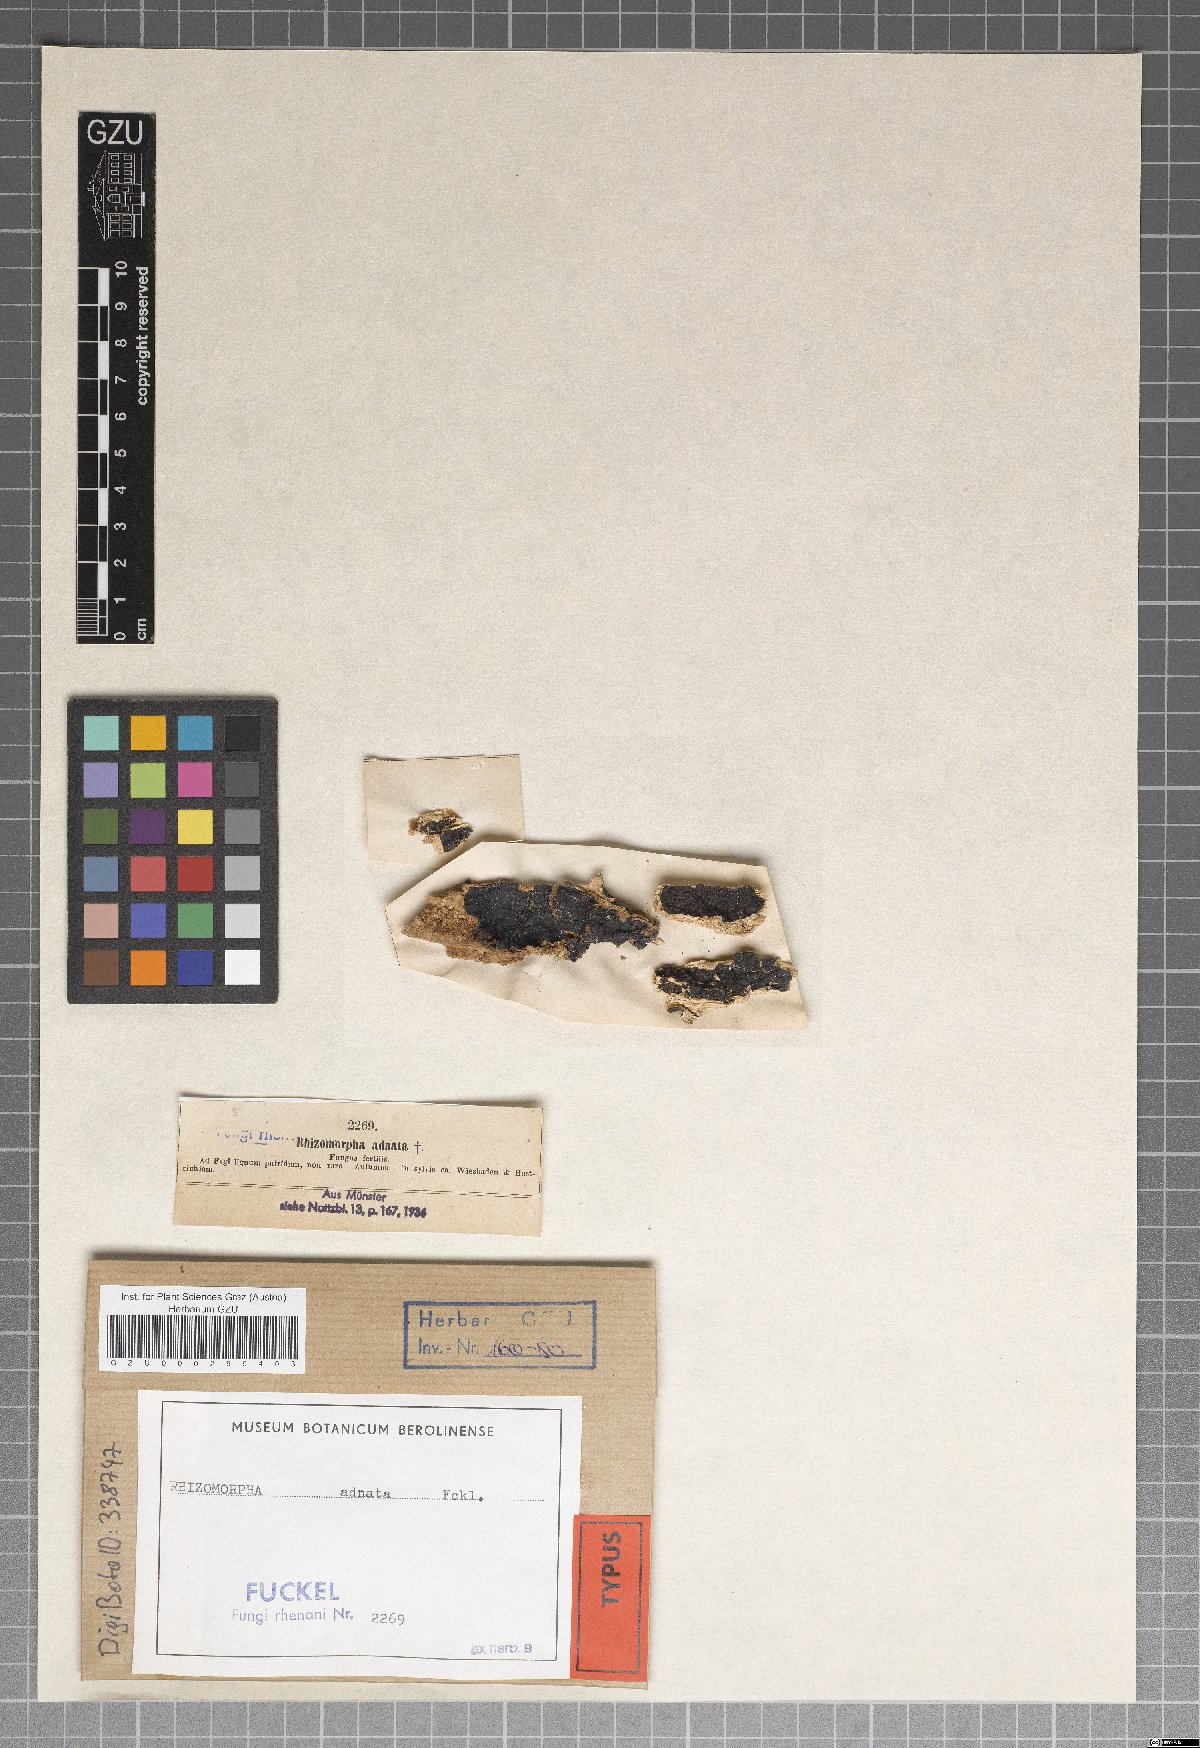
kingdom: Fungi
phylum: Basidiomycota
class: Agaricomycetes
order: Agaricales
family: Marasmiaceae
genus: Rhizomorpha
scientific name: Rhizomorpha
